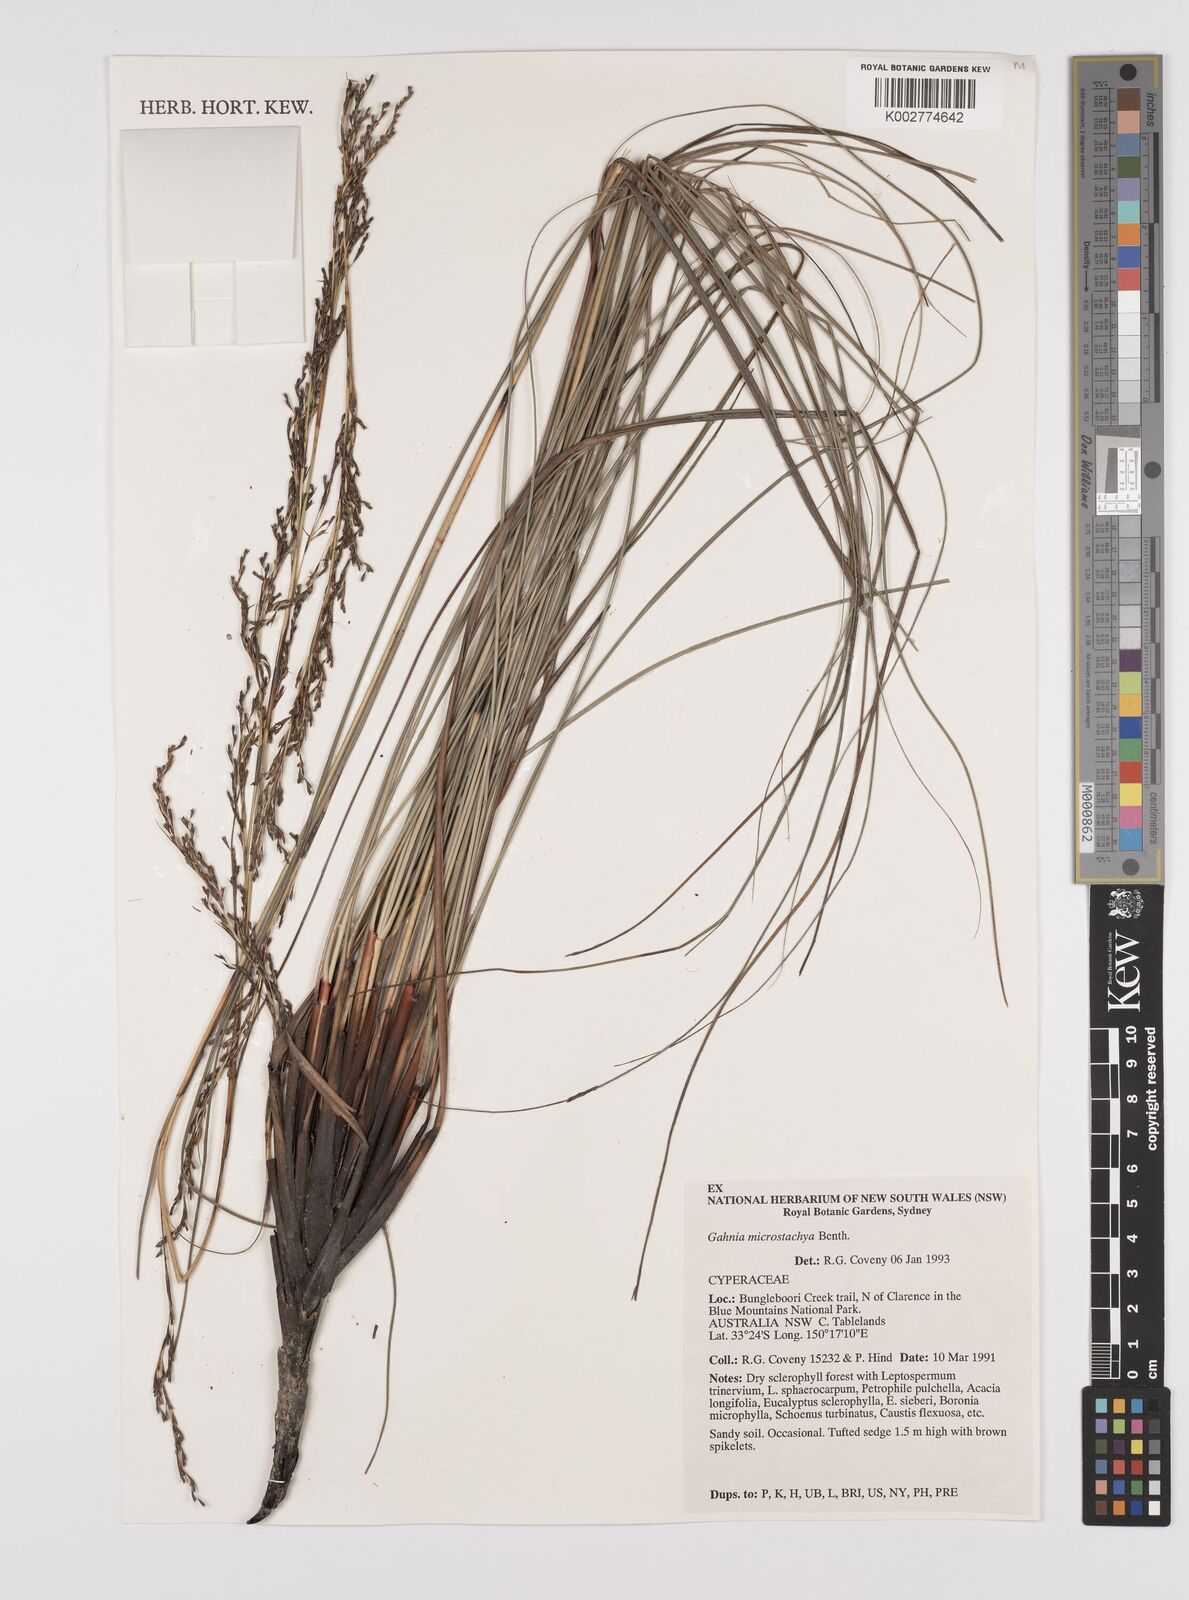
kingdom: Plantae
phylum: Tracheophyta
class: Liliopsida
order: Poales
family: Cyperaceae
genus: Gahnia
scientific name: Gahnia microstachya
